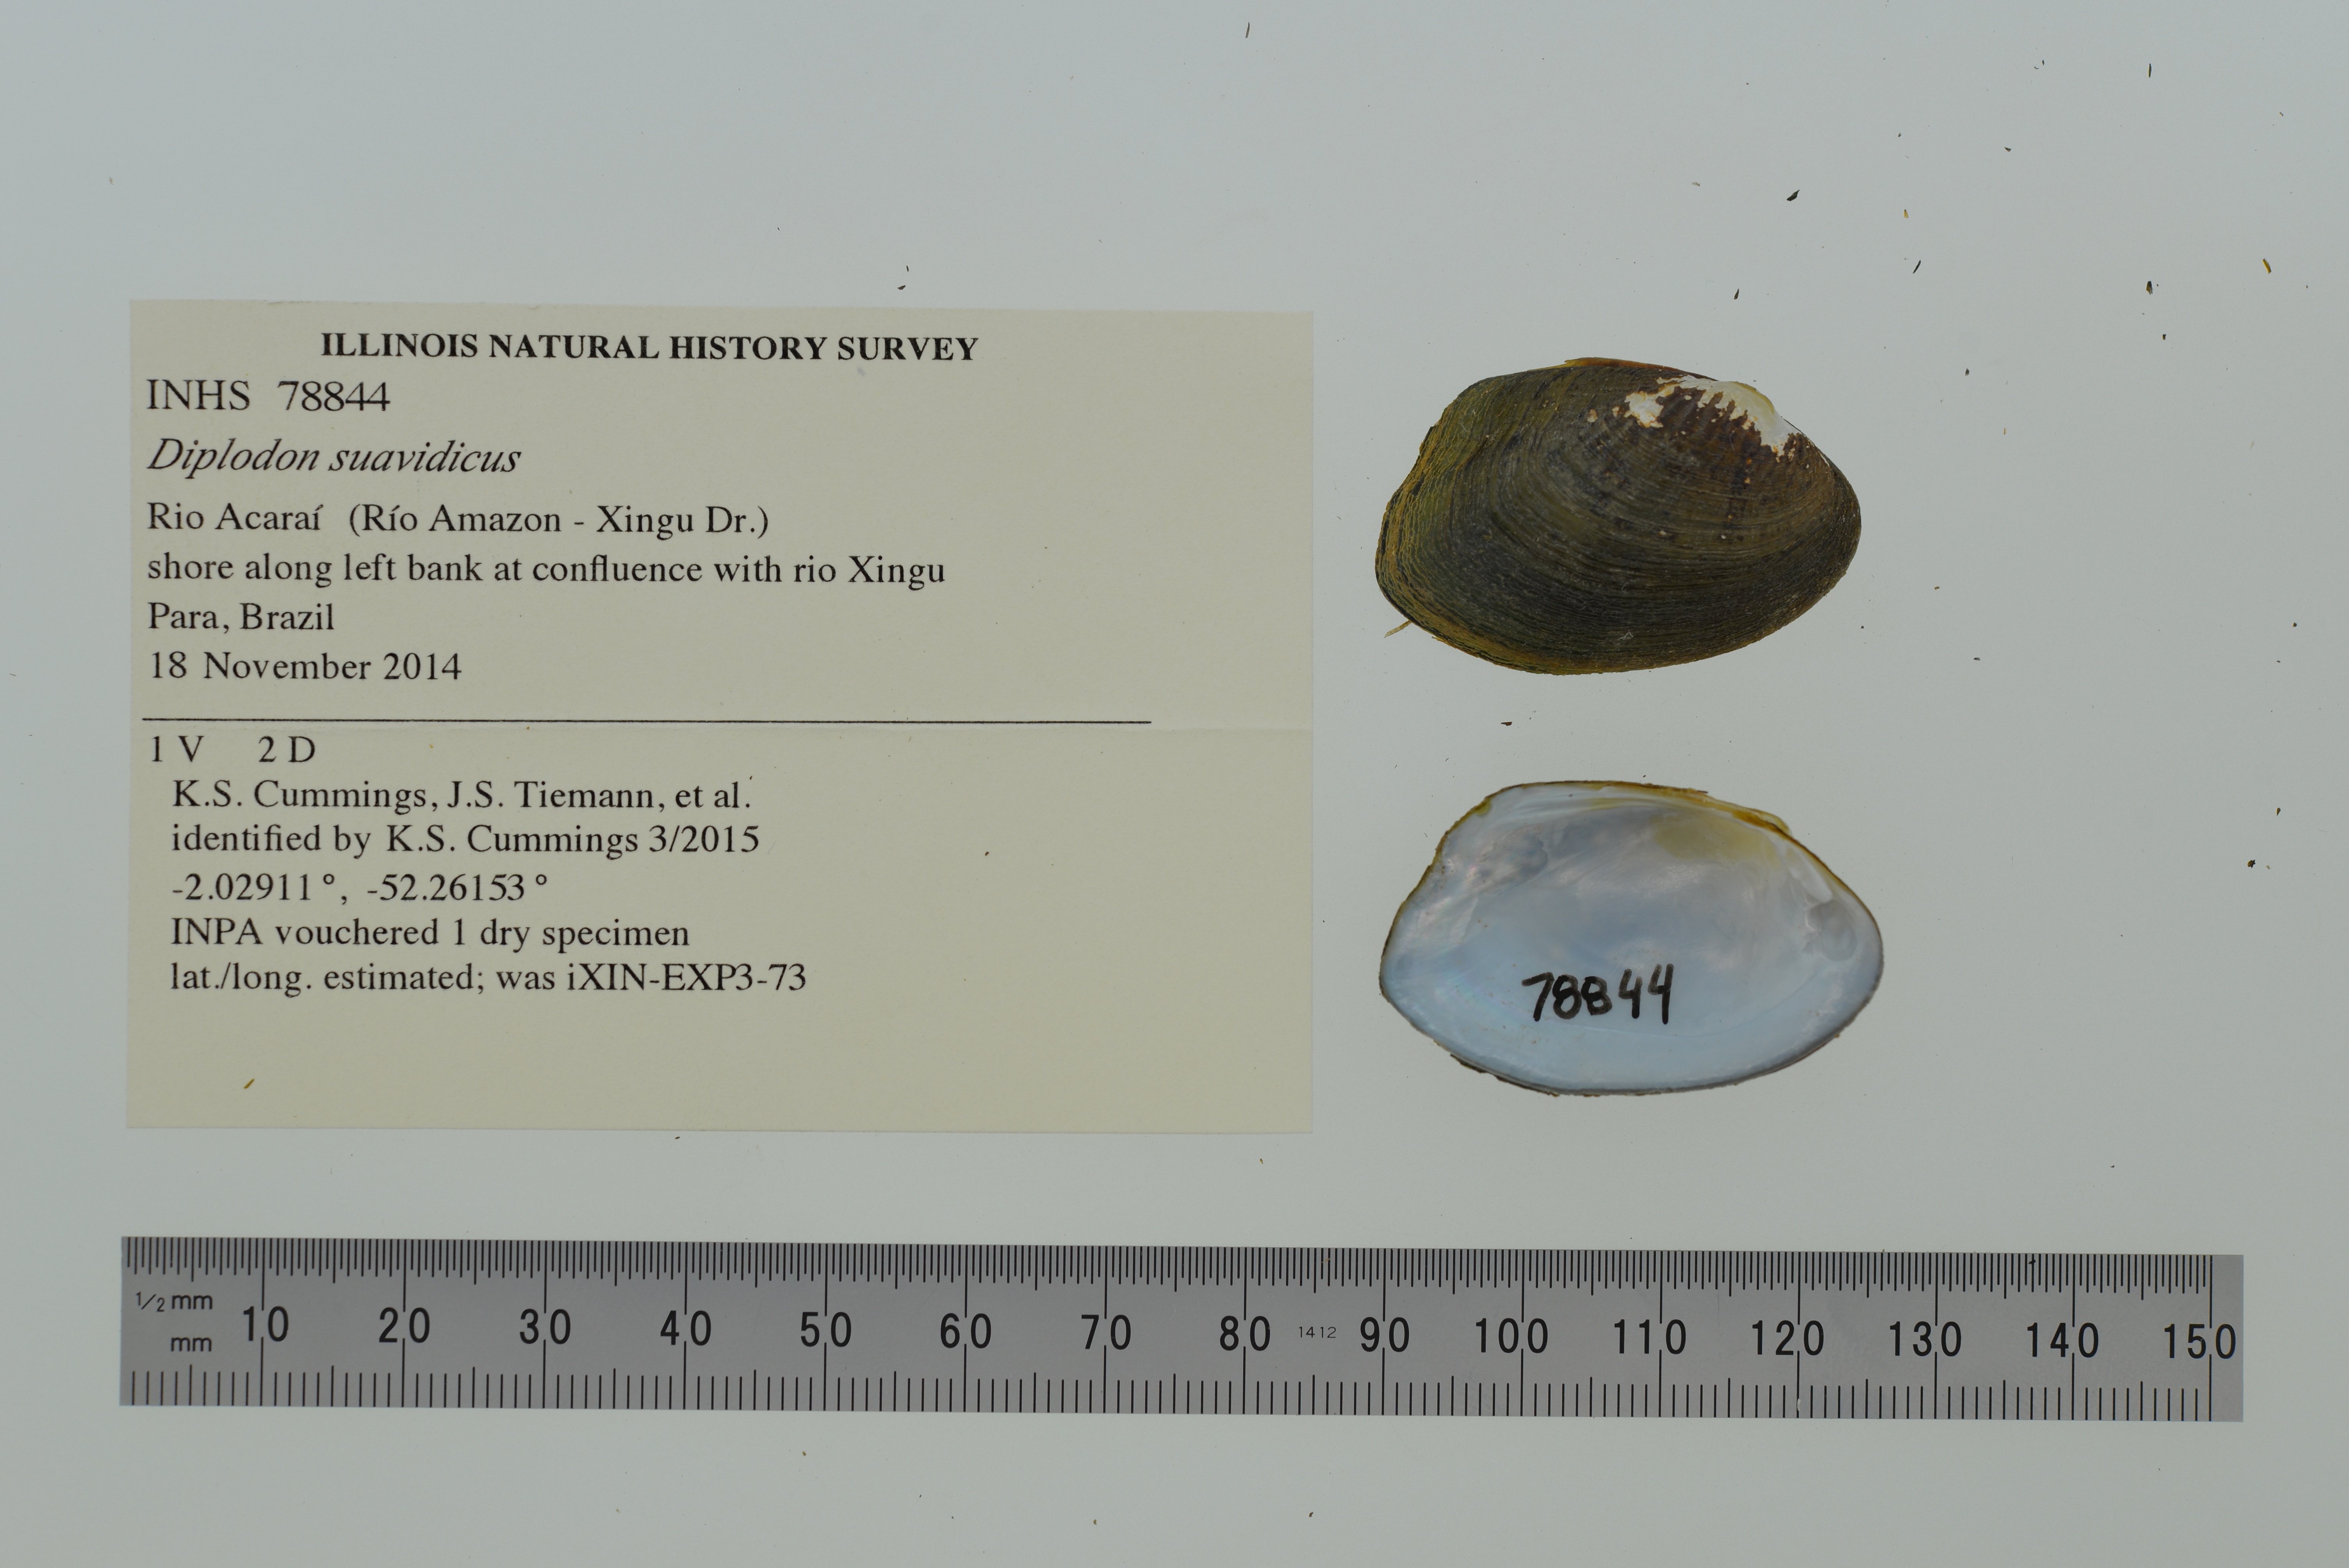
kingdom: Animalia
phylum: Mollusca
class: Bivalvia
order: Unionida
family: Hyriidae
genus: Diplodon
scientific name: Diplodon suavidicus
